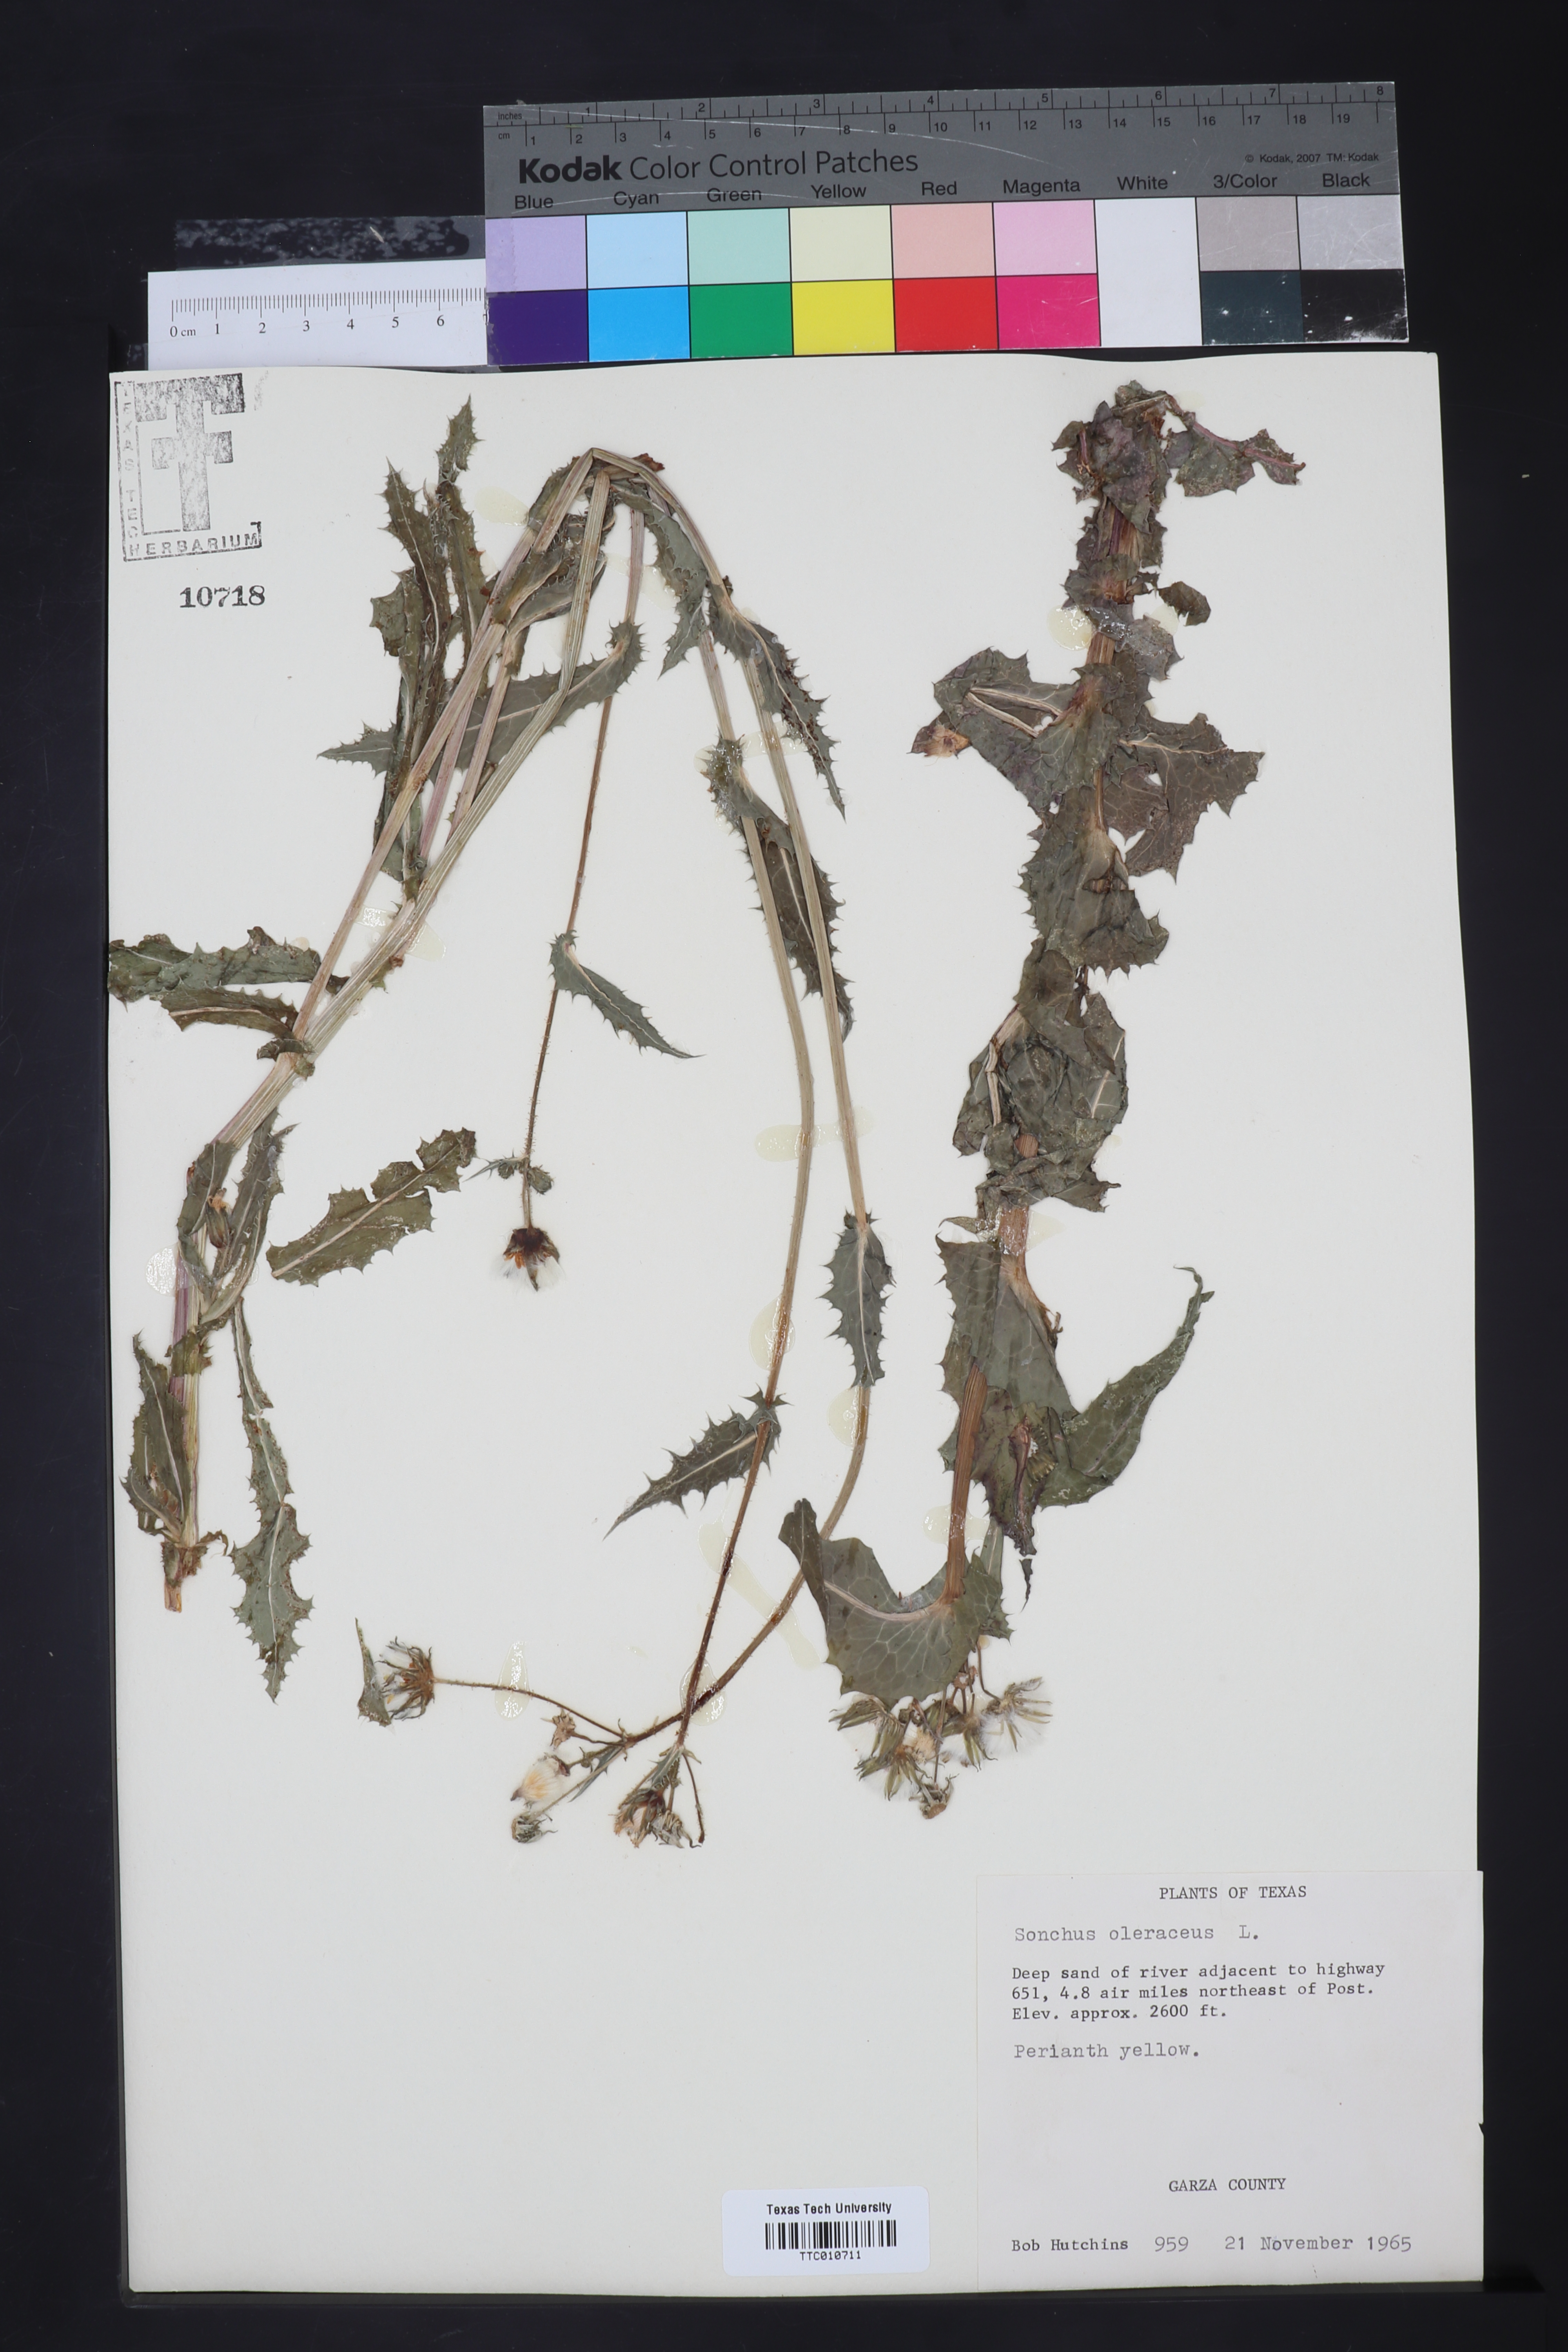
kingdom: Plantae
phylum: Tracheophyta
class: Magnoliopsida
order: Asterales
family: Asteraceae
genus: Sonchus
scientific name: Sonchus oleraceus
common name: Common sowthistle
